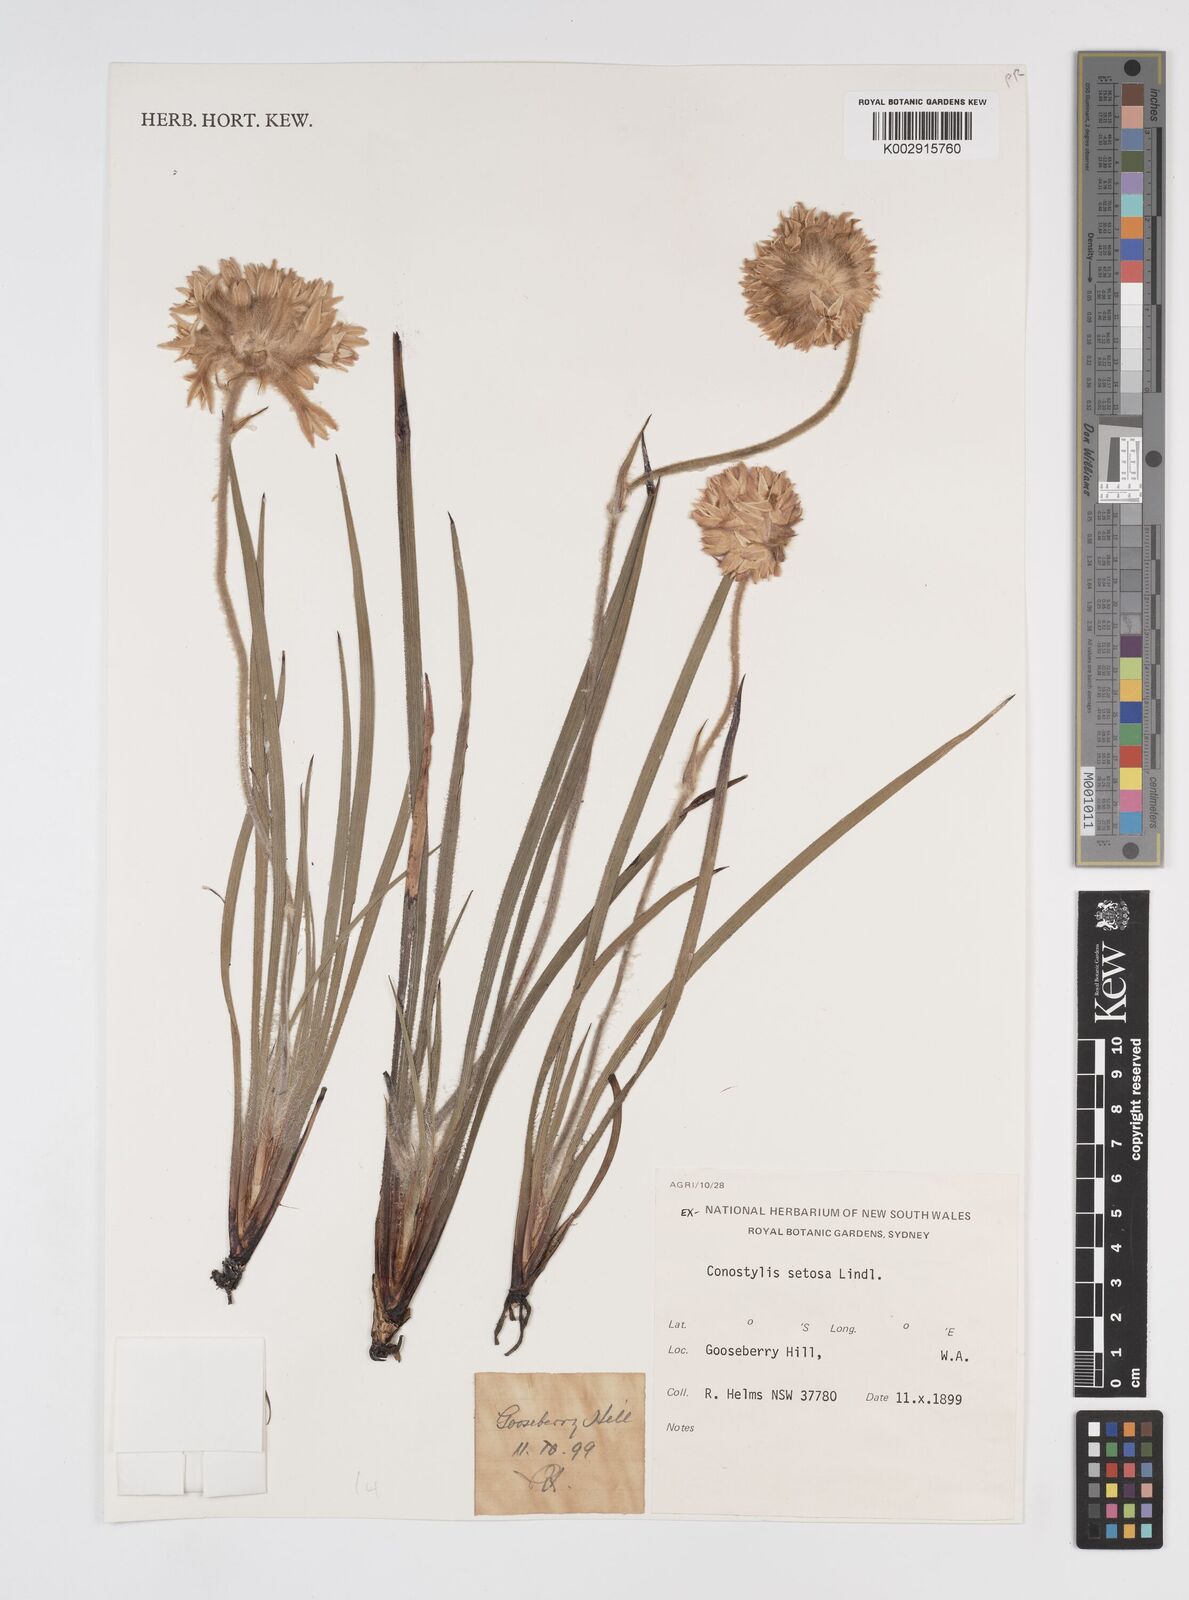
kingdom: Plantae
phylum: Tracheophyta
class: Liliopsida
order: Commelinales
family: Haemodoraceae
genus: Conostylis
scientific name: Conostylis setosa
